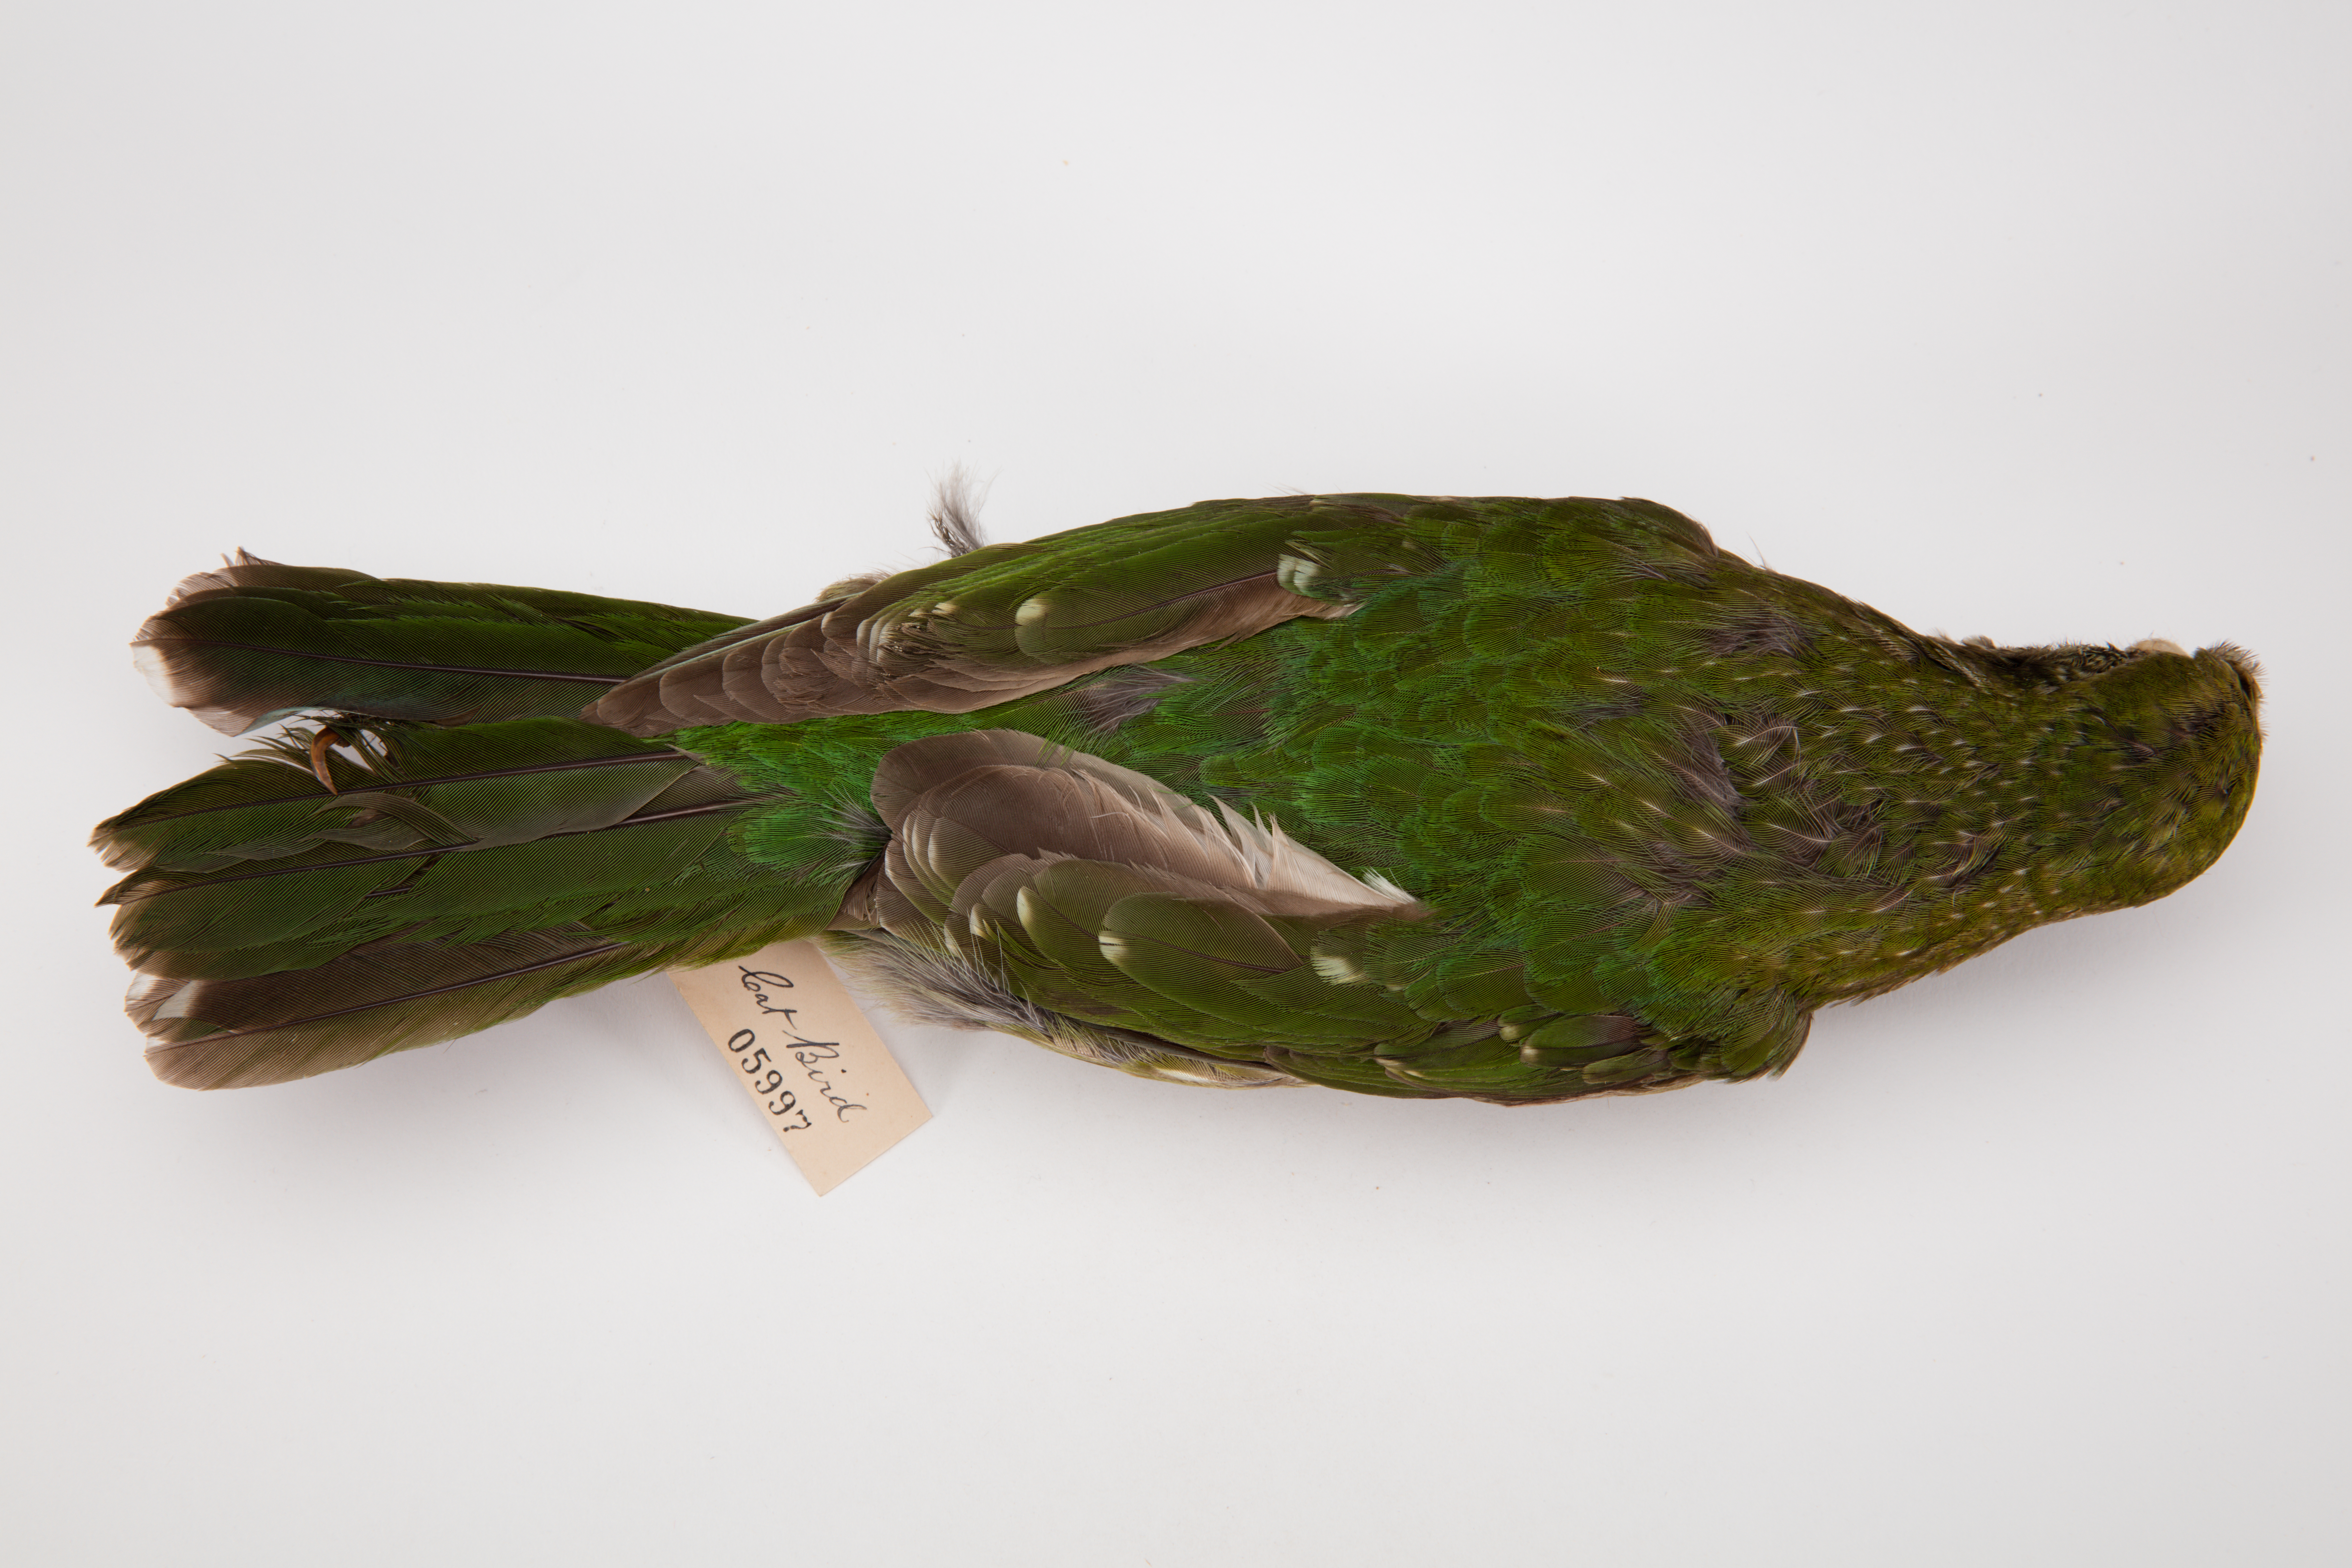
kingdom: Animalia
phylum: Chordata
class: Aves
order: Passeriformes
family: Ptilonorhynchidae
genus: Ailuroedus
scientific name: Ailuroedus crassirostris
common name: Green catbird
